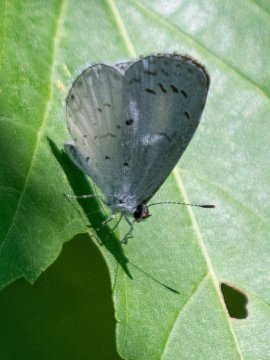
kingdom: Animalia
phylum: Arthropoda
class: Insecta
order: Lepidoptera
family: Lycaenidae
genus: Cyaniris
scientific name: Cyaniris neglecta
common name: Summer Azure
